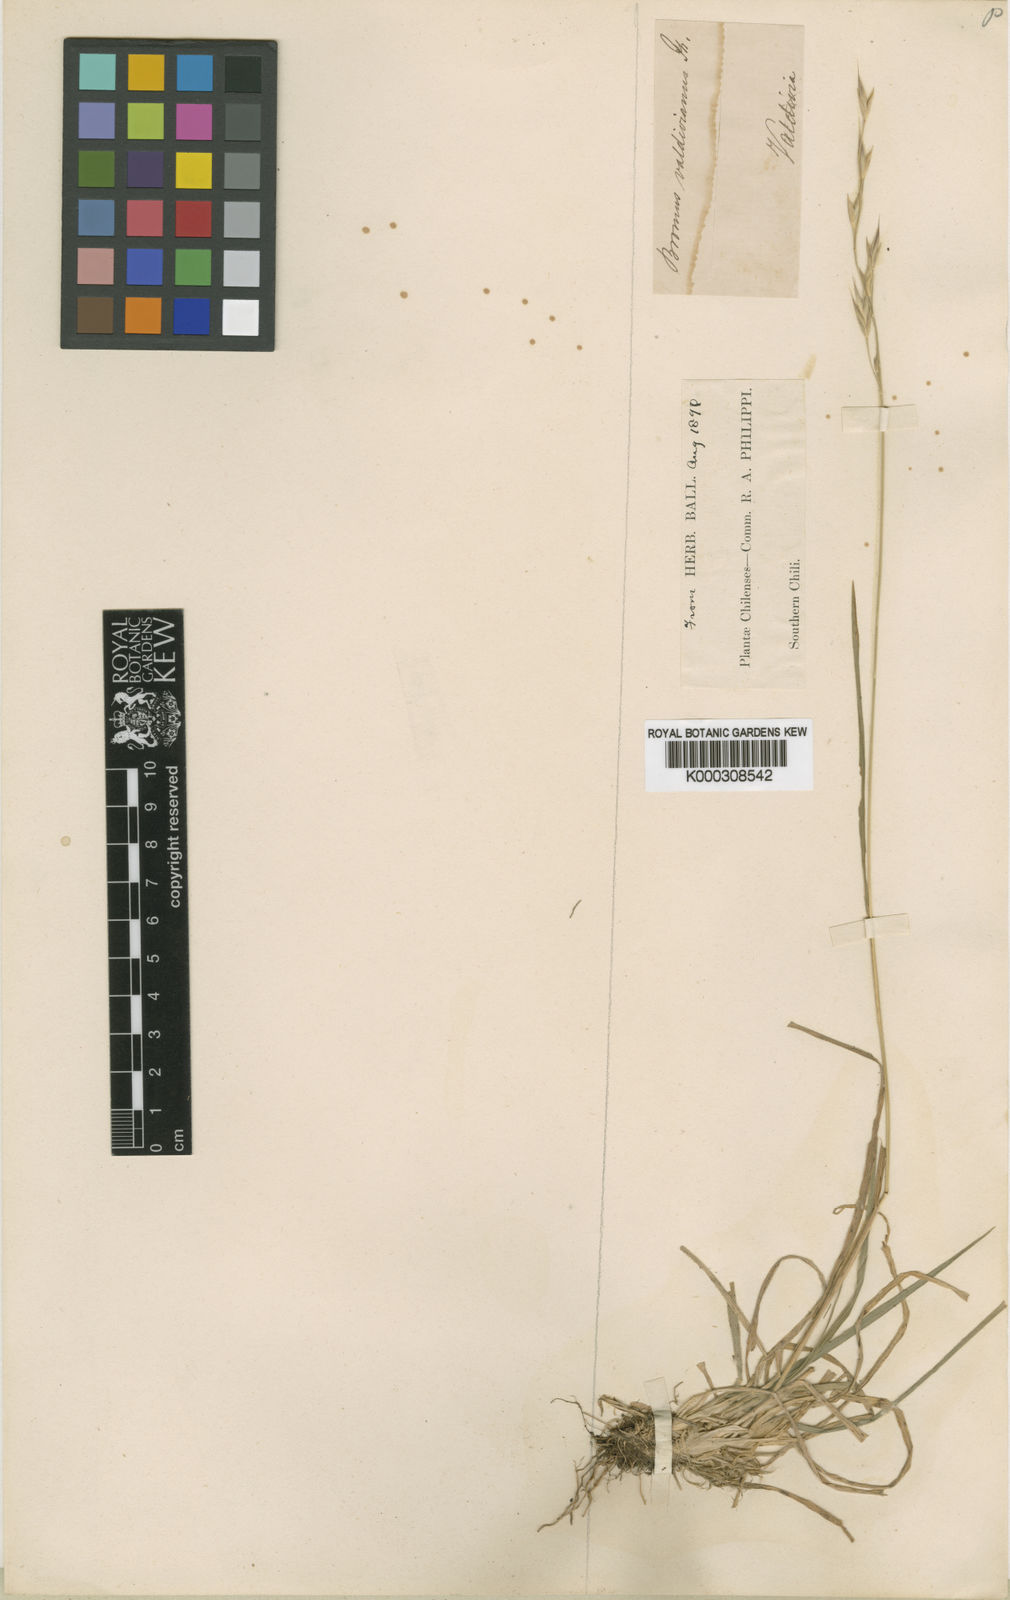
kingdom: Plantae
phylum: Tracheophyta
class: Liliopsida
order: Poales
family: Poaceae
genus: Bromus
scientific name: Bromus cebadilla
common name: Southern brome
